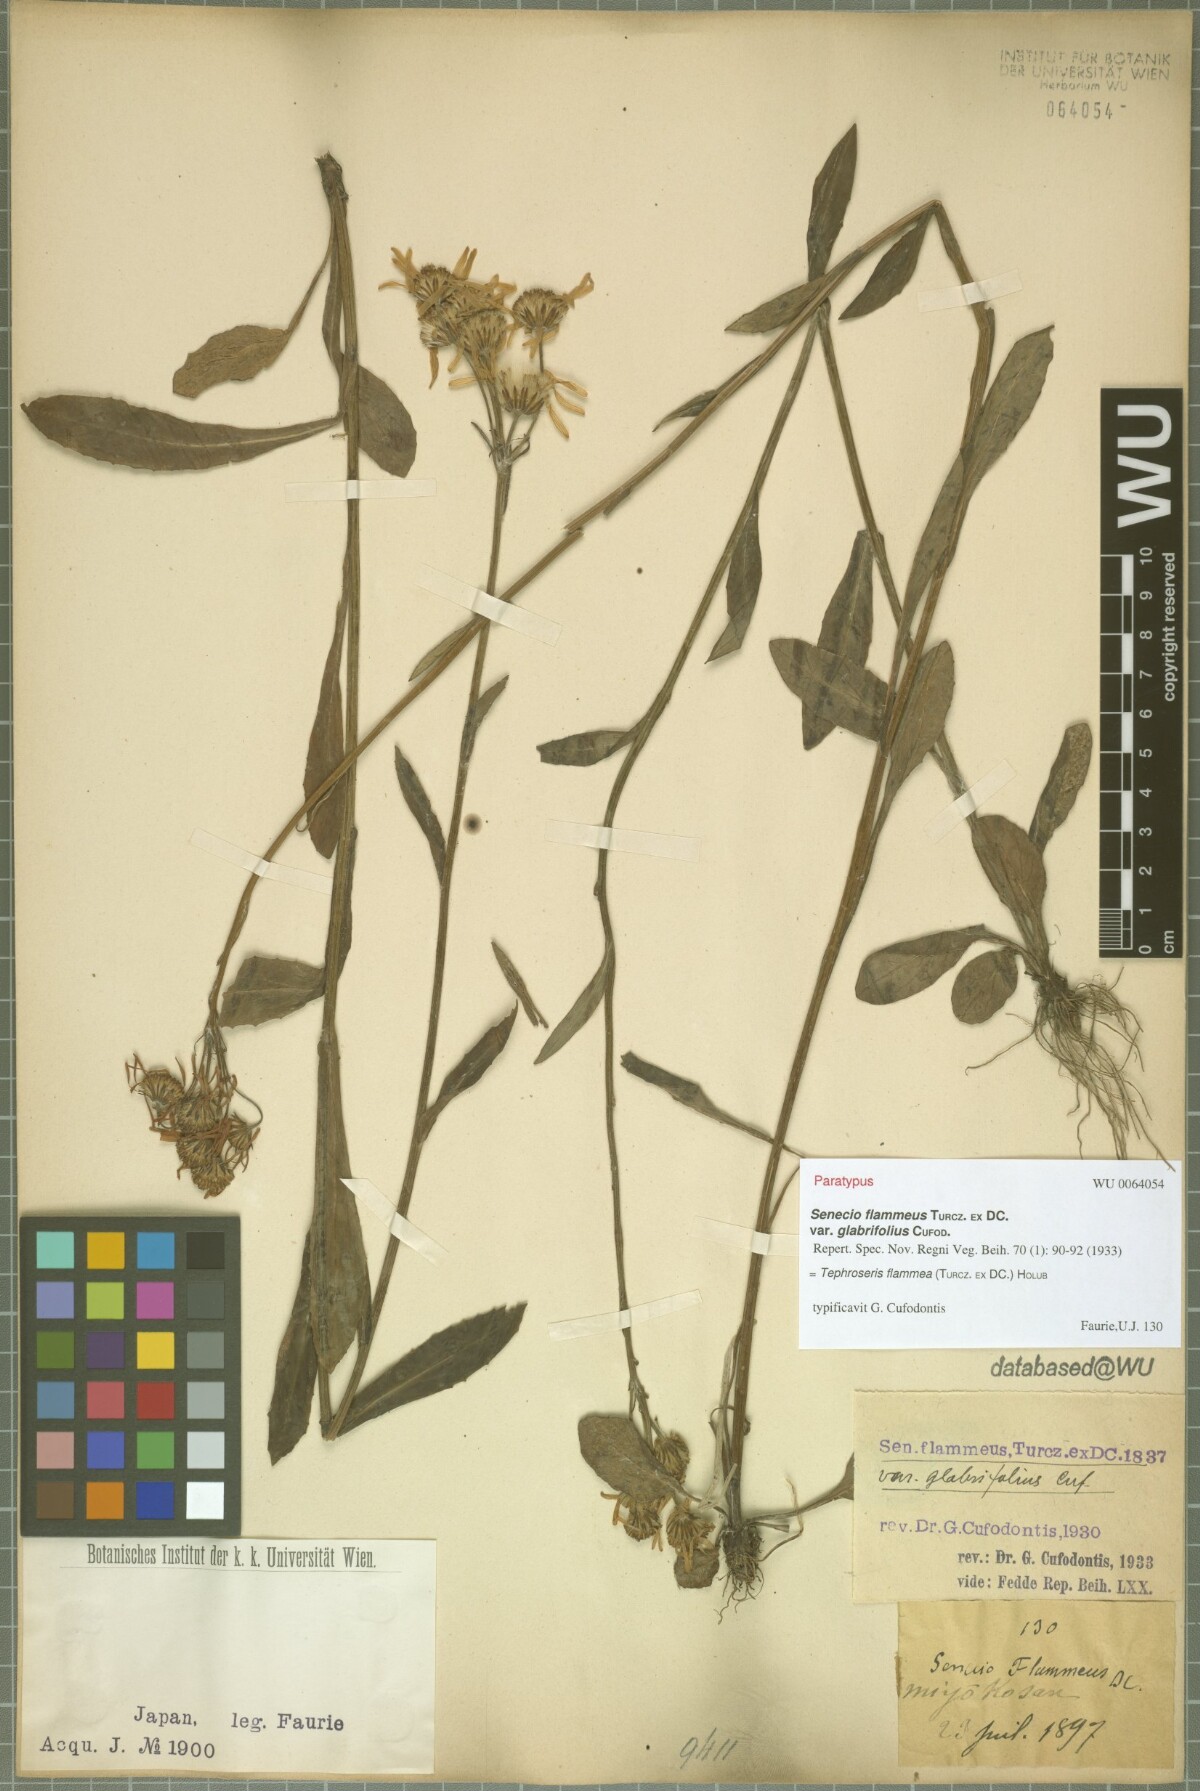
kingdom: Plantae
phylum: Tracheophyta
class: Magnoliopsida
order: Asterales
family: Asteraceae
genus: Tephroseris
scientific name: Tephroseris flammea
